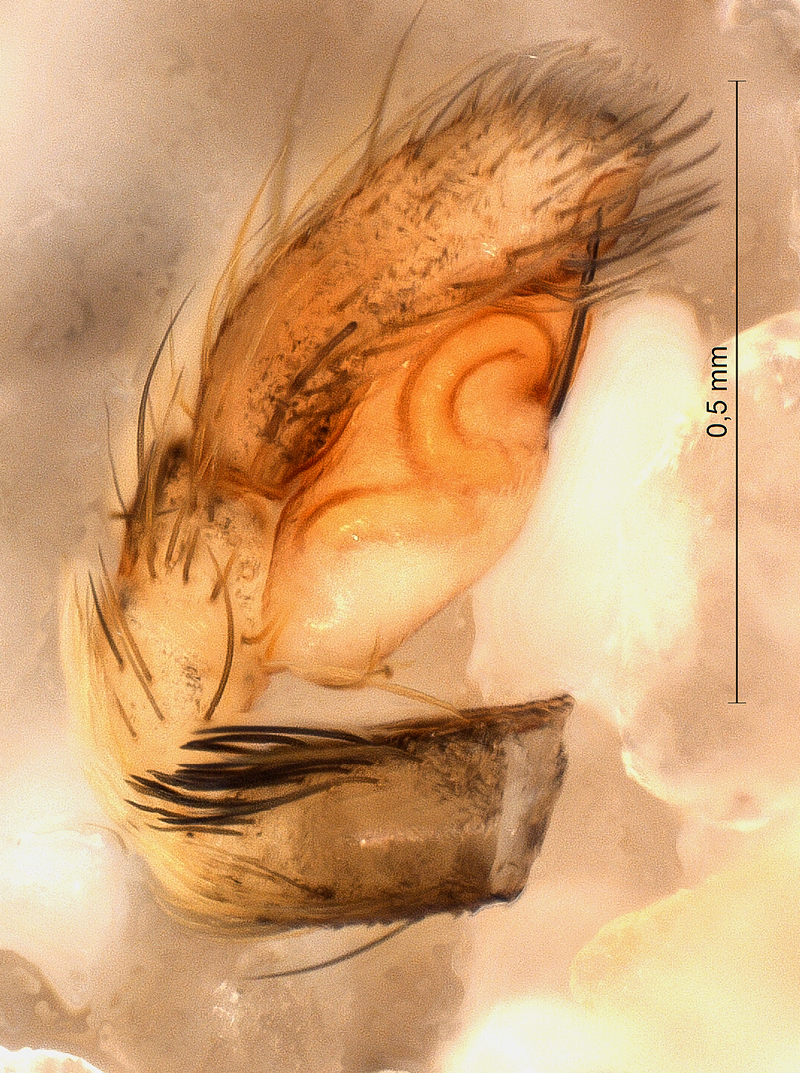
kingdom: Animalia
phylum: Arthropoda
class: Arachnida
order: Araneae
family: Salticidae
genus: Euophrys
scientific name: Euophrys frontalis
